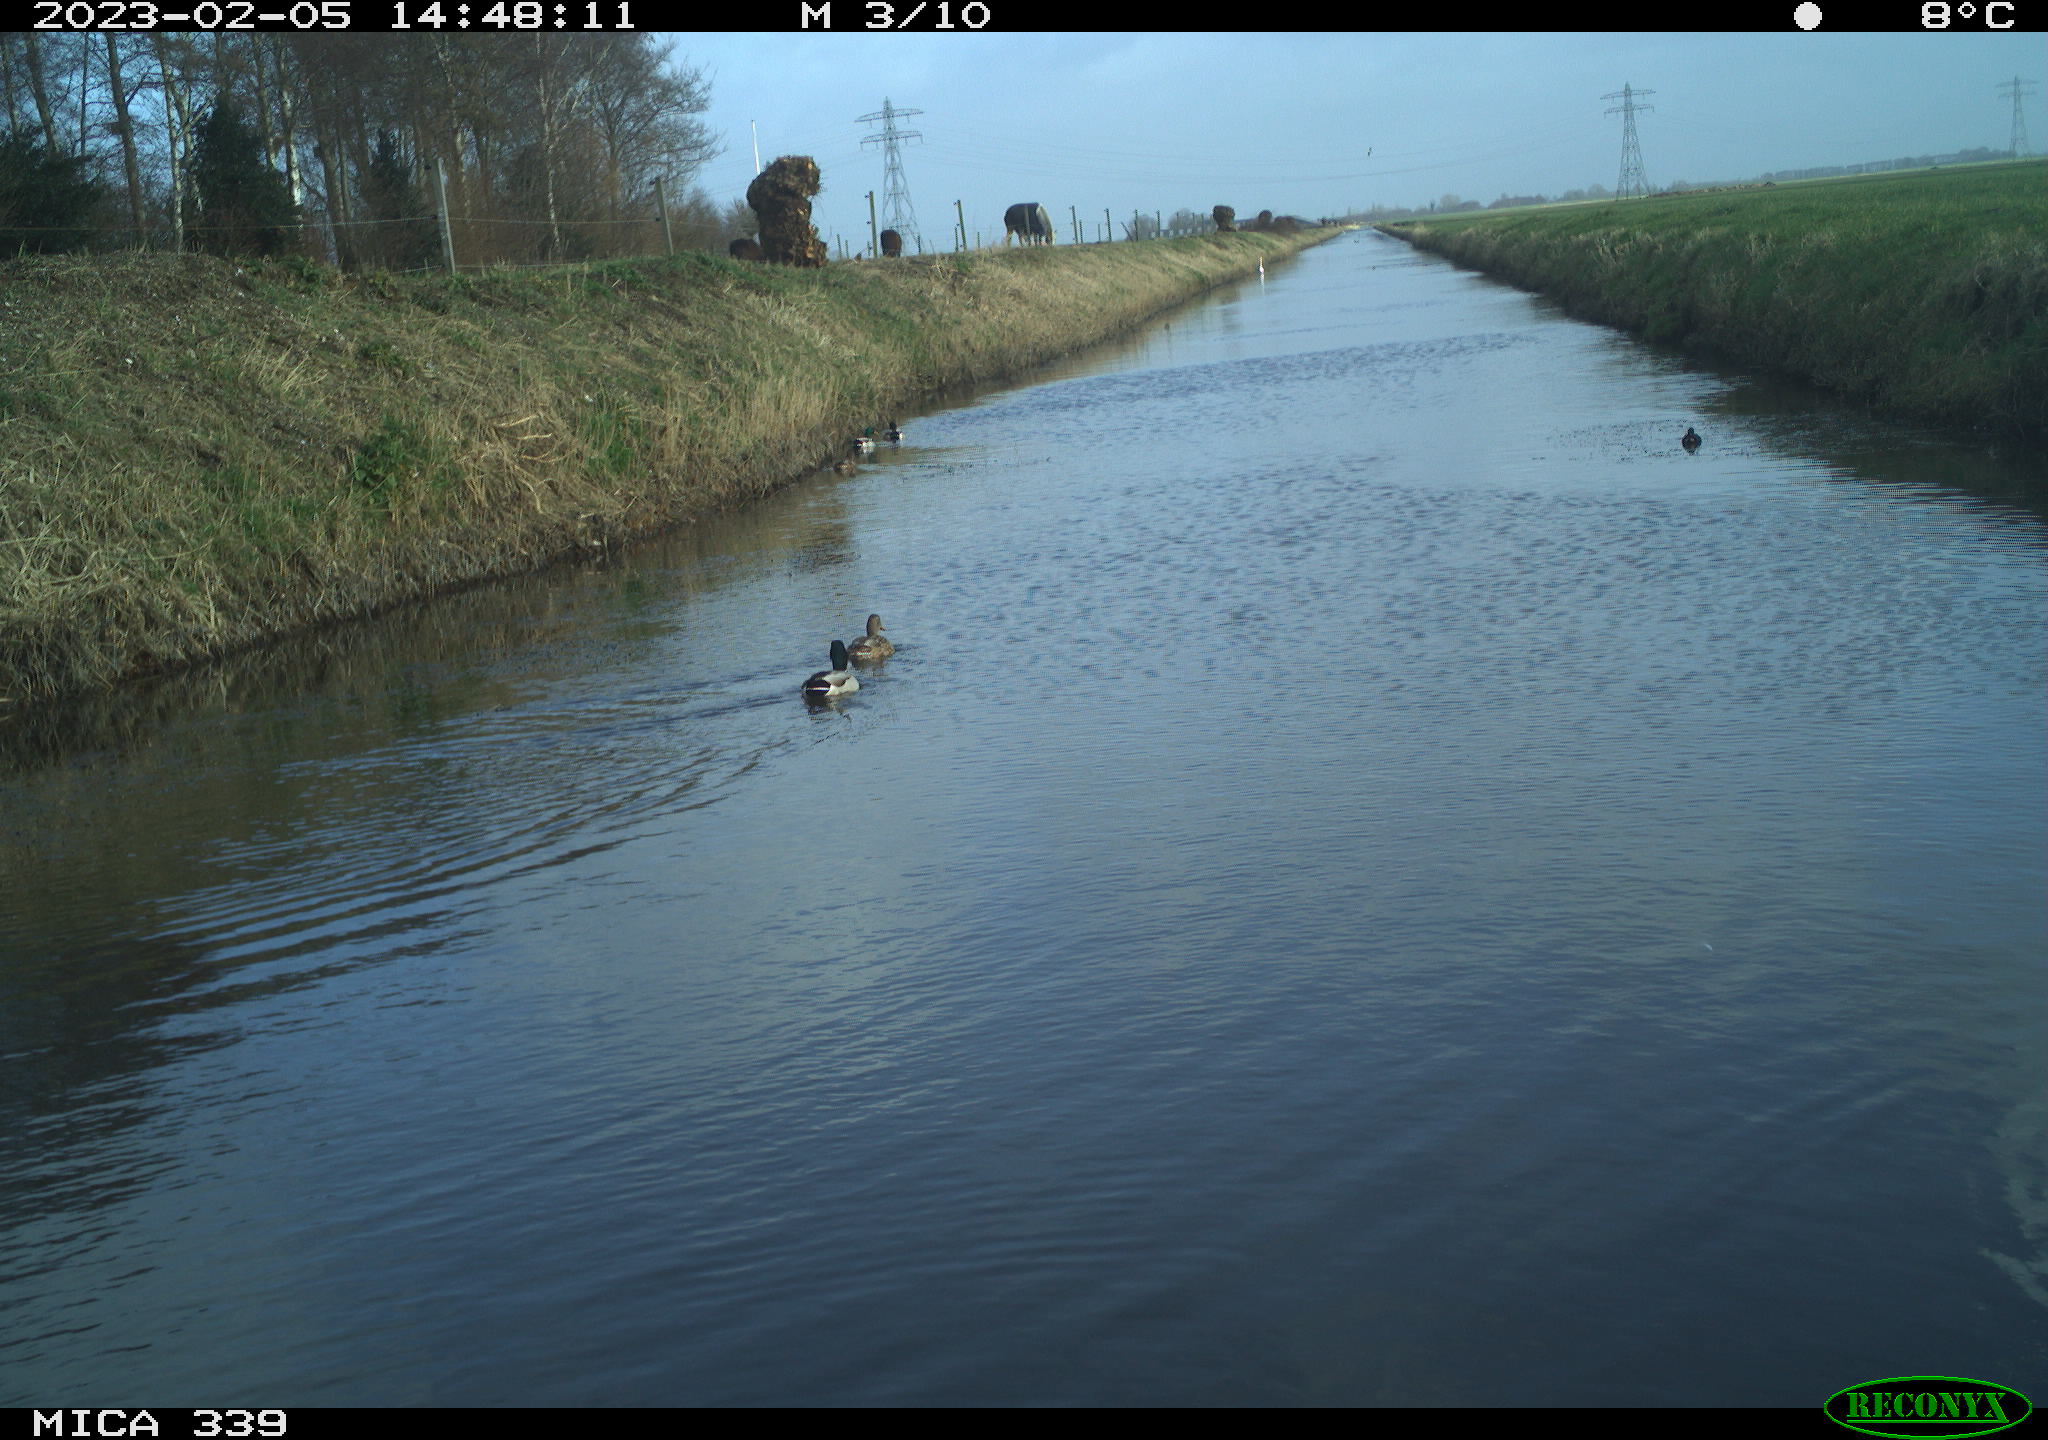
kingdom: Animalia
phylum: Chordata
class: Aves
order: Anseriformes
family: Anatidae
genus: Anas
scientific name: Anas
